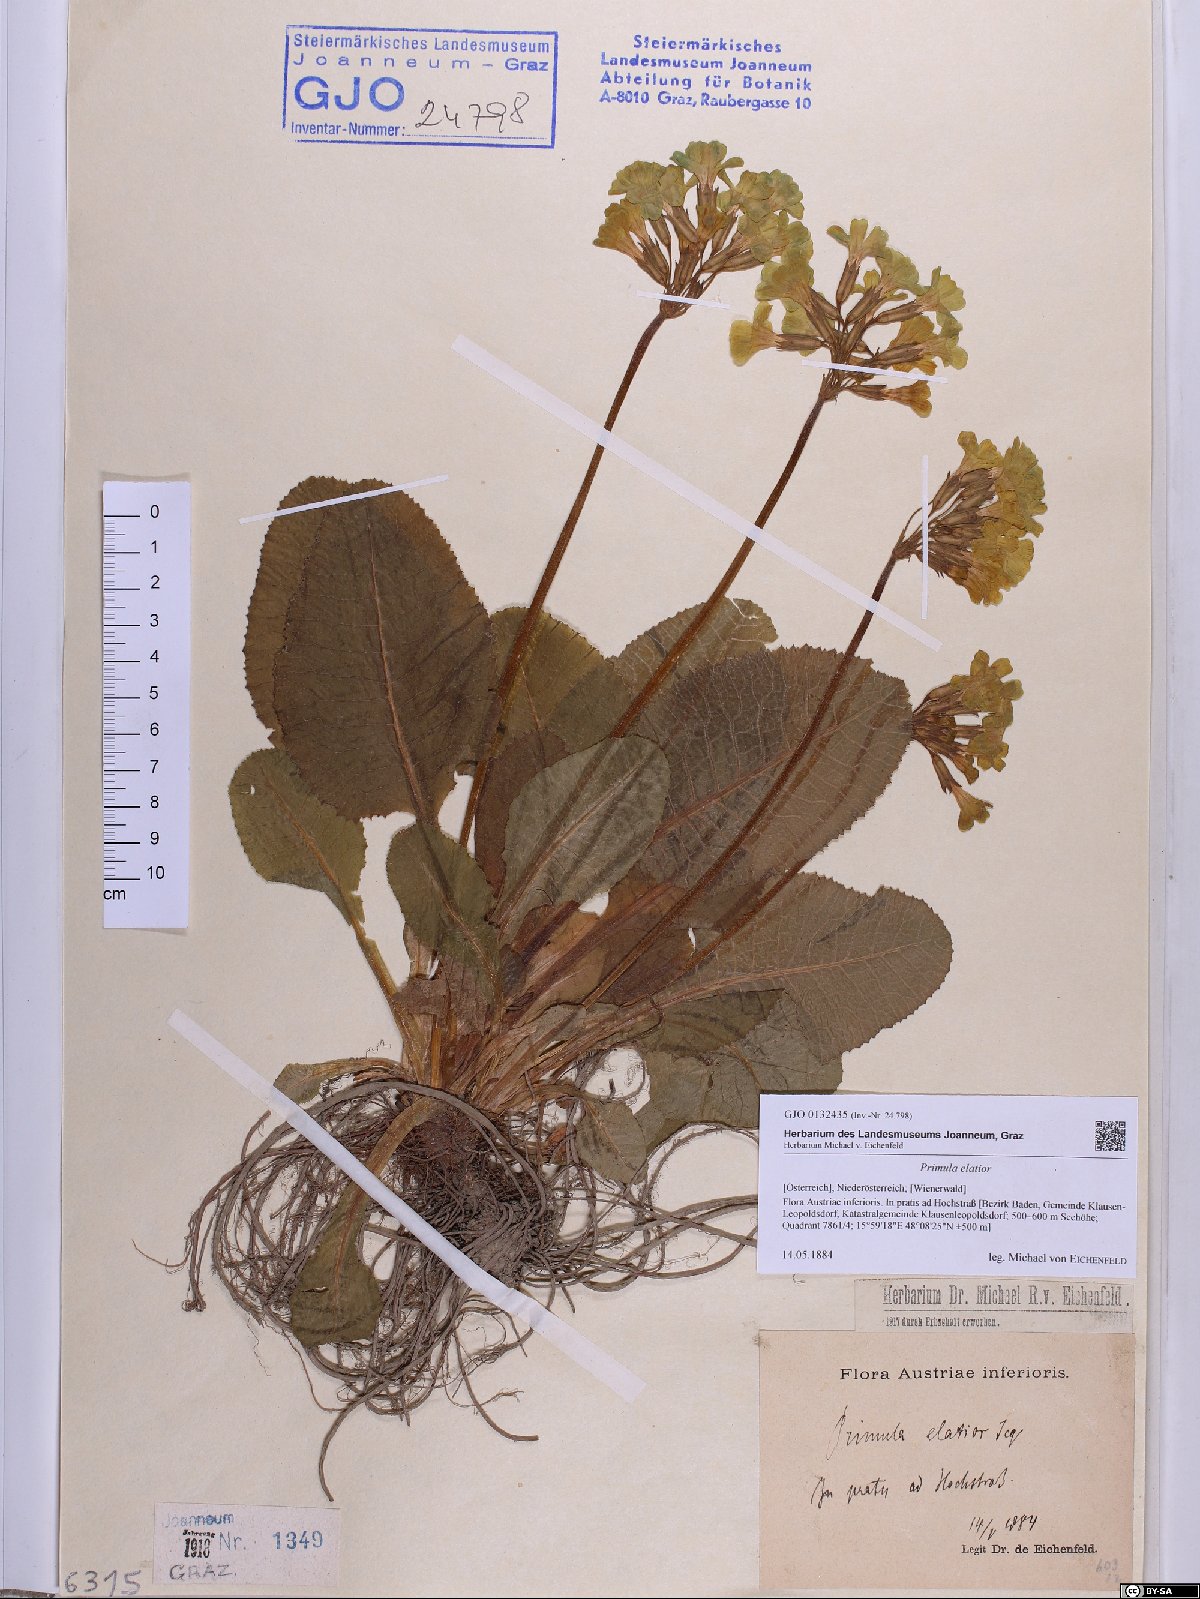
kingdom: Plantae
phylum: Tracheophyta
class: Magnoliopsida
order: Ericales
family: Primulaceae
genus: Primula
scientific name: Primula elatior
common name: Oxlip
